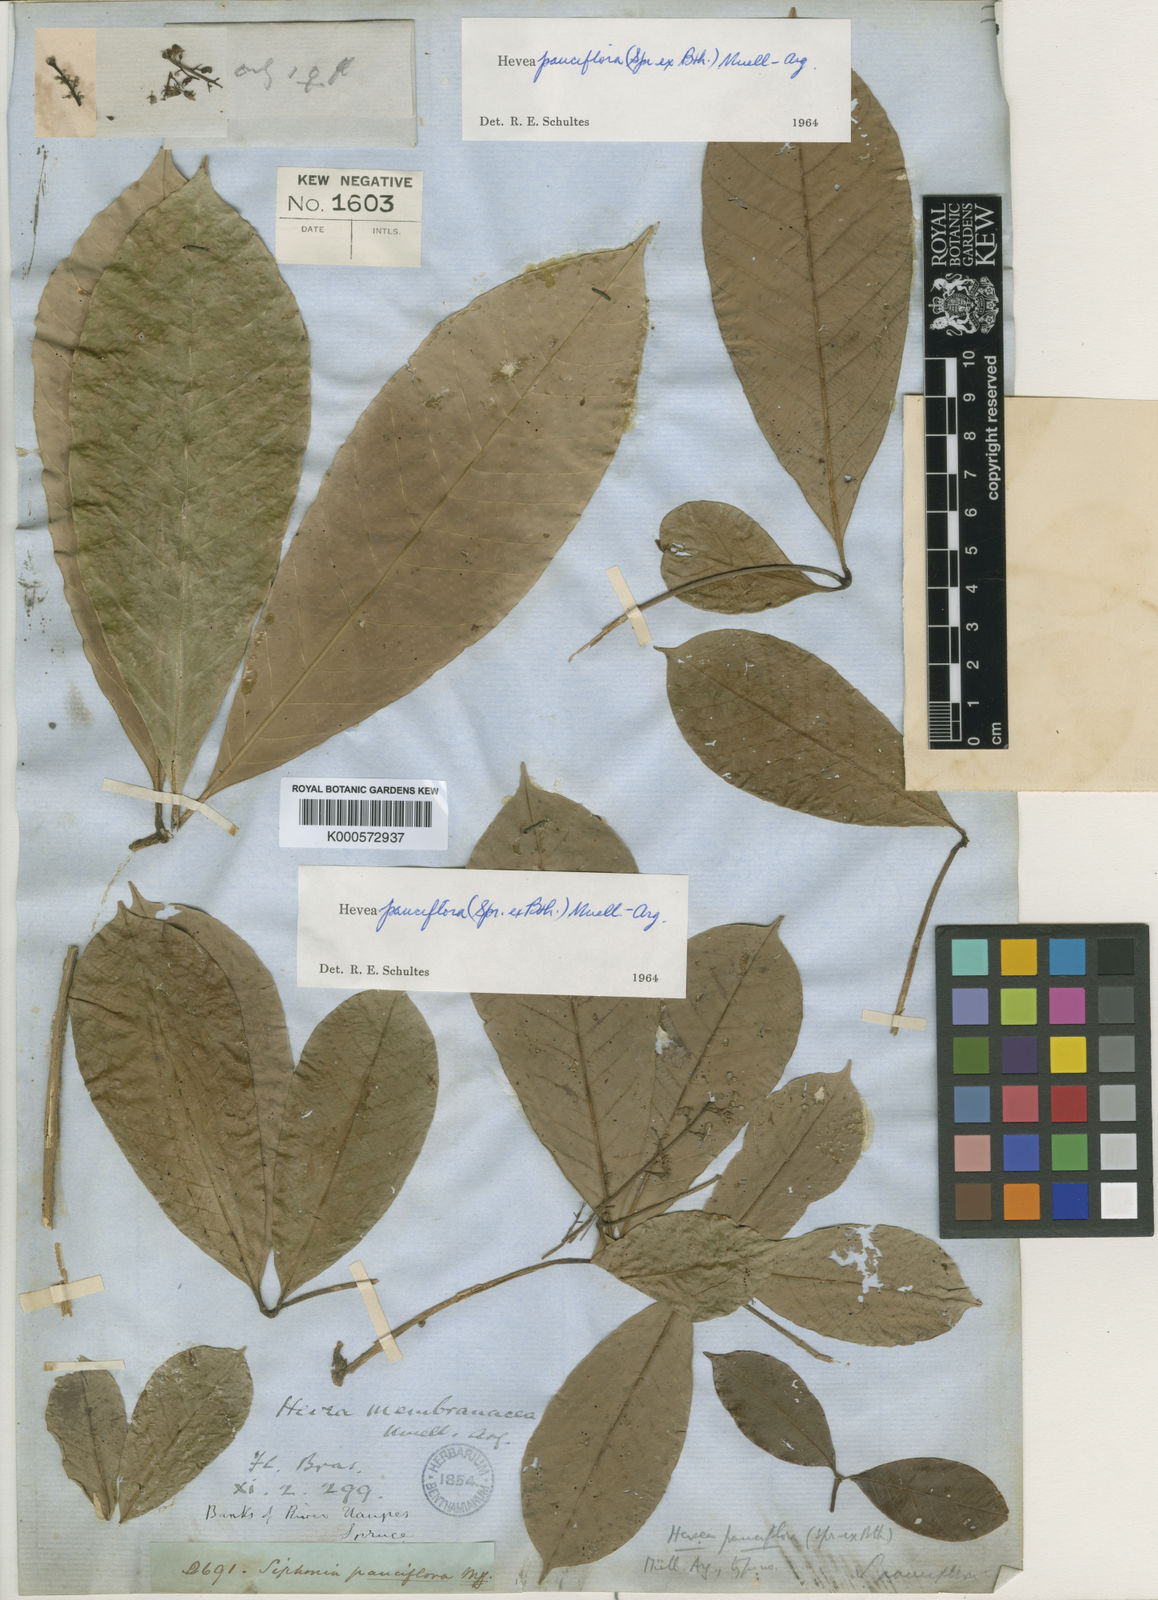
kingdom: Plantae
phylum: Tracheophyta
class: Magnoliopsida
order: Malpighiales
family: Euphorbiaceae
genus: Hevea
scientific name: Hevea
